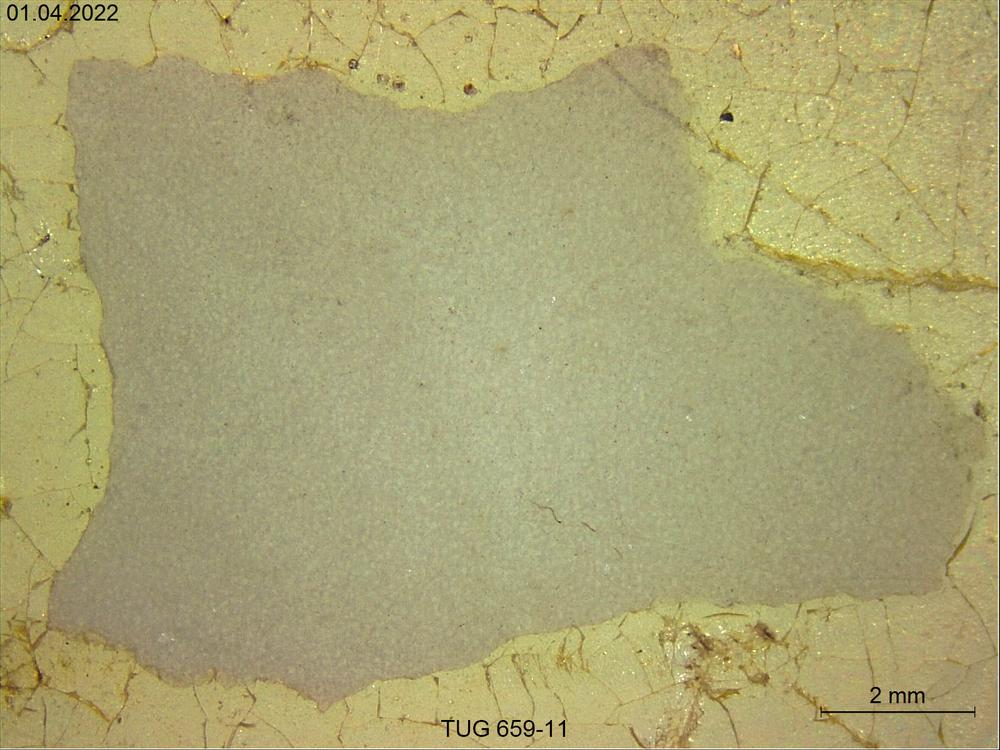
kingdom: Animalia
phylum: Porifera
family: Stromatoporidae
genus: Stromatopora
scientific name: Stromatopora
